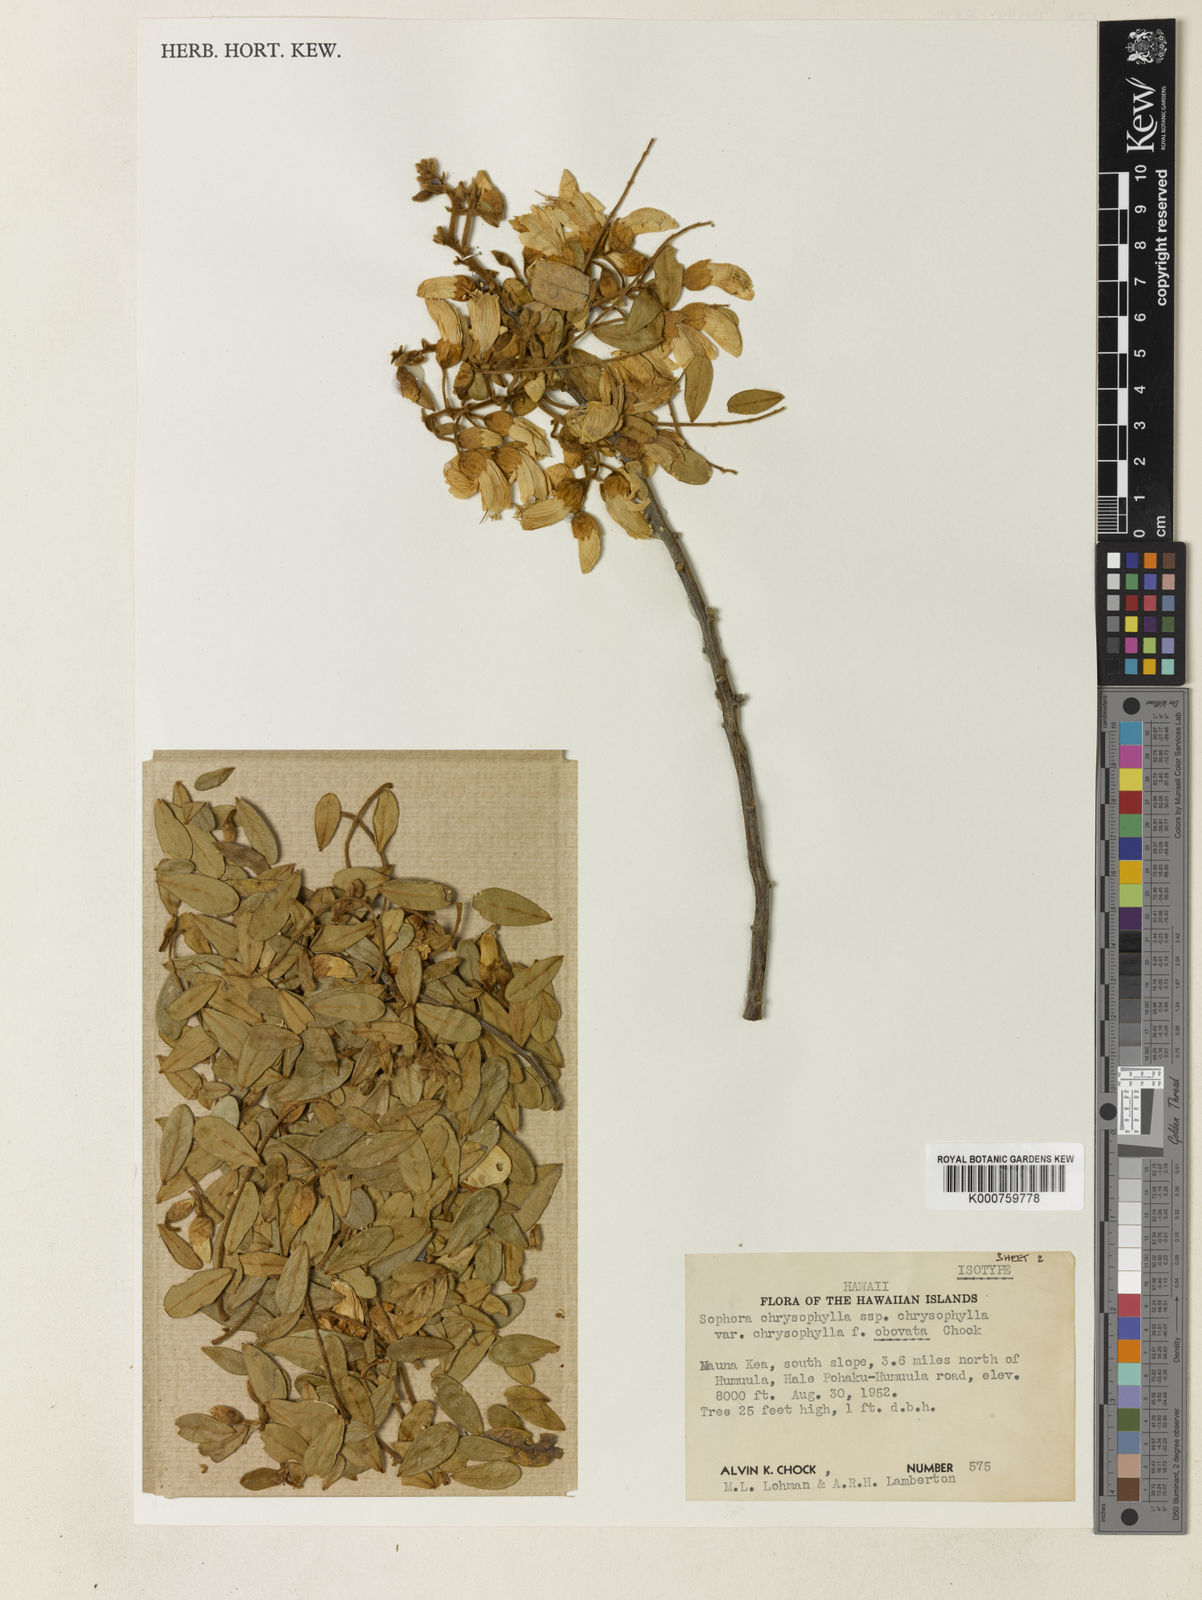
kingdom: Plantae
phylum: Tracheophyta
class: Magnoliopsida
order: Fabales
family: Fabaceae
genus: Sophora
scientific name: Sophora chrysophylla
